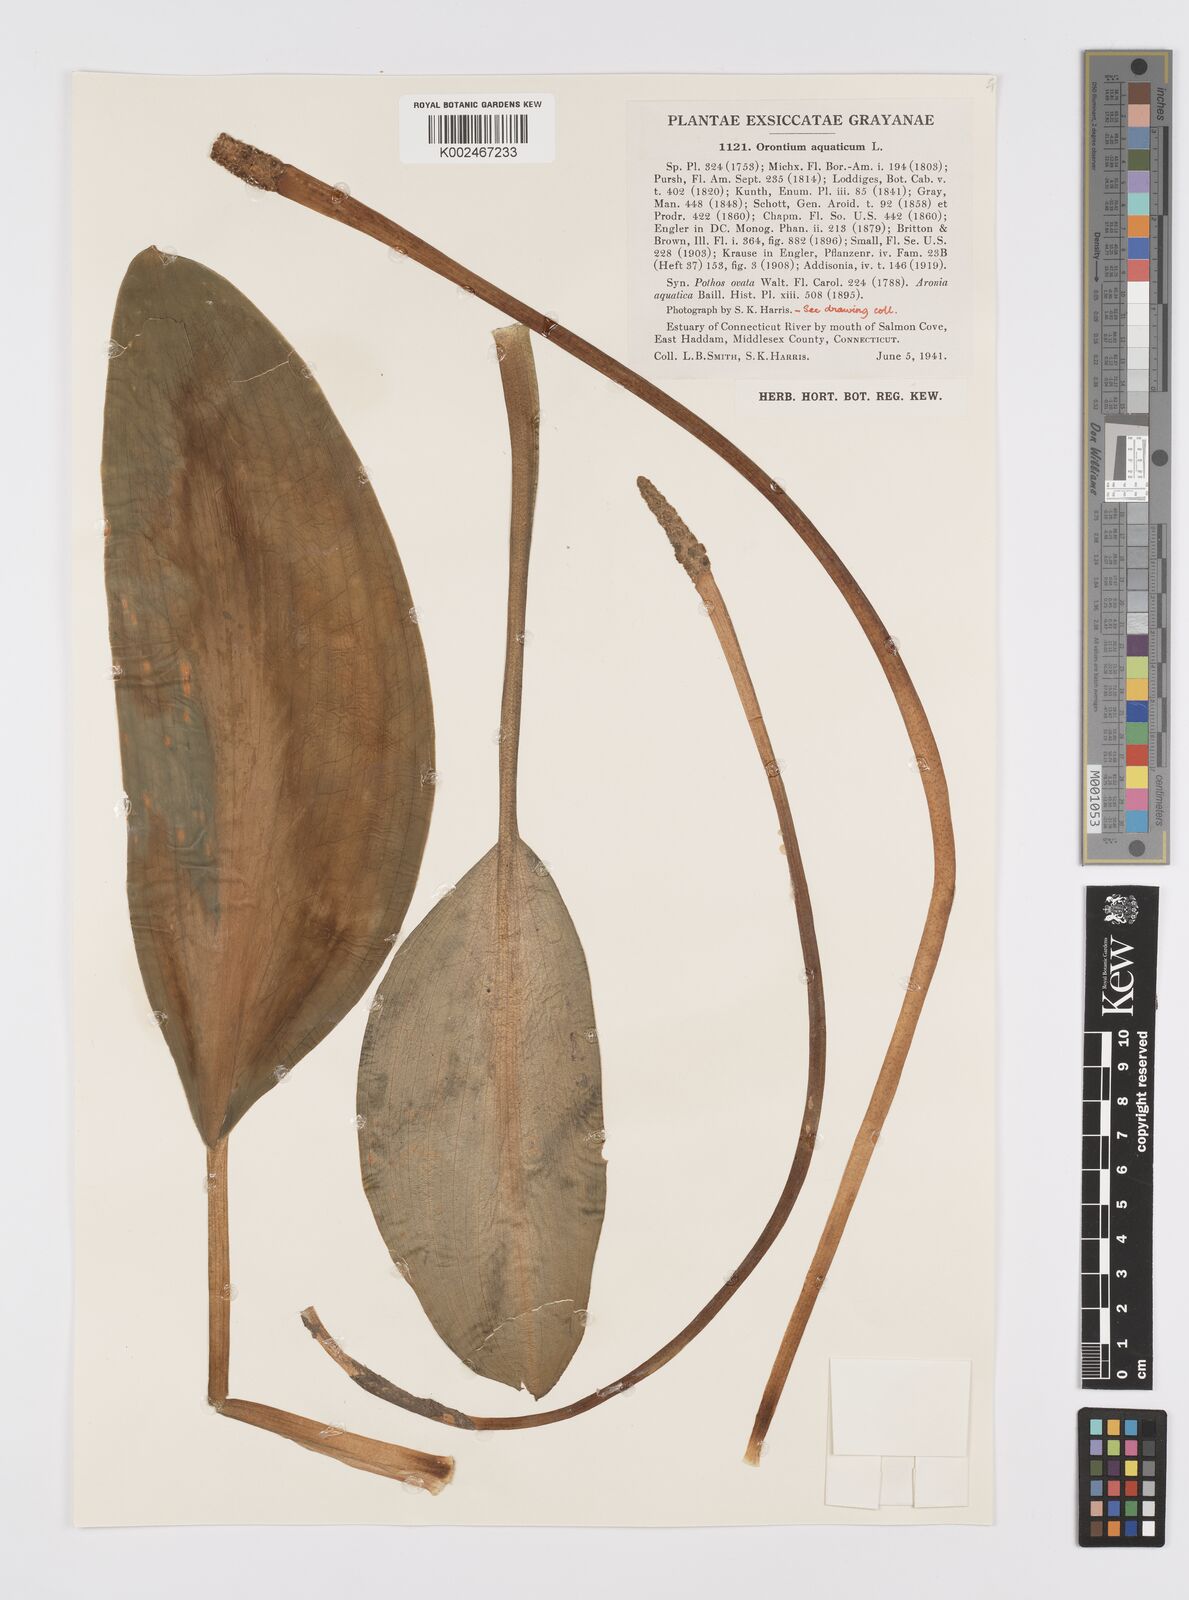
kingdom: Plantae
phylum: Tracheophyta
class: Liliopsida
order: Alismatales
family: Araceae
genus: Orontium
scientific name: Orontium aquaticum
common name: Golden-club
